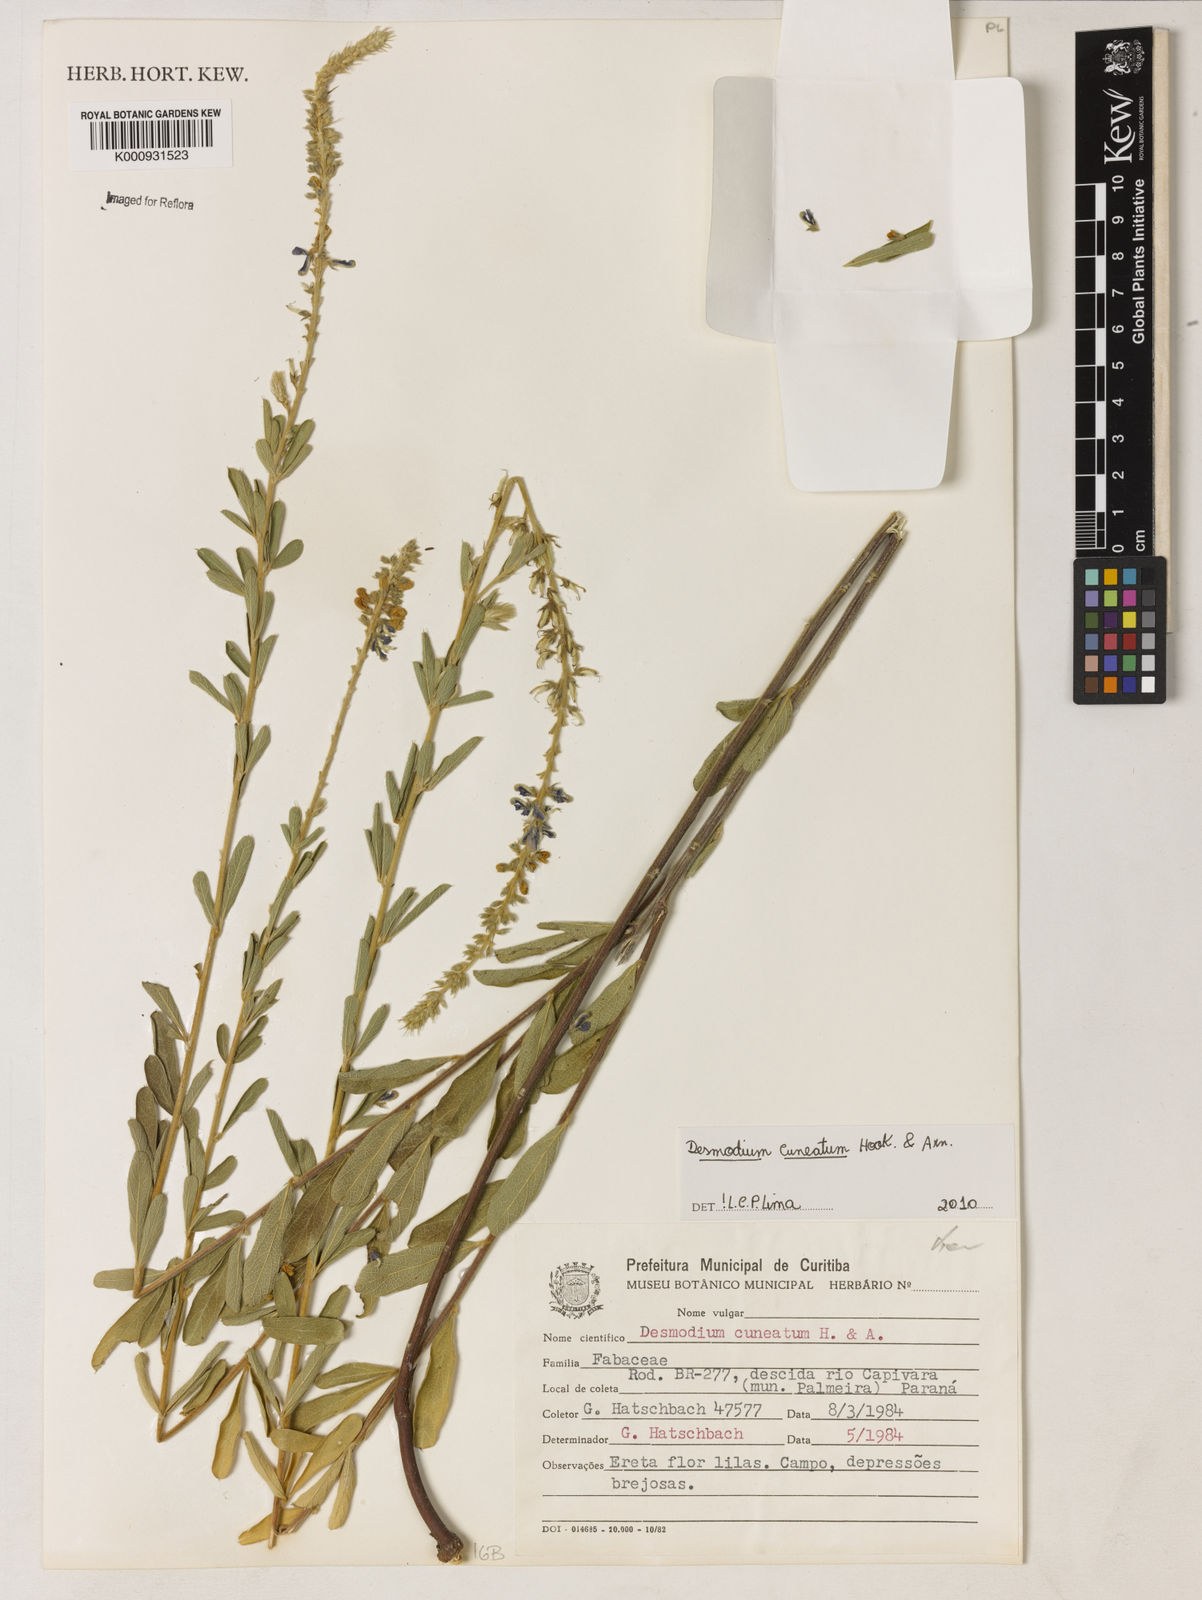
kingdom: Plantae
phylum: Tracheophyta
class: Magnoliopsida
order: Fabales
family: Fabaceae
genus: Desmodium
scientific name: Desmodium cuneatum
